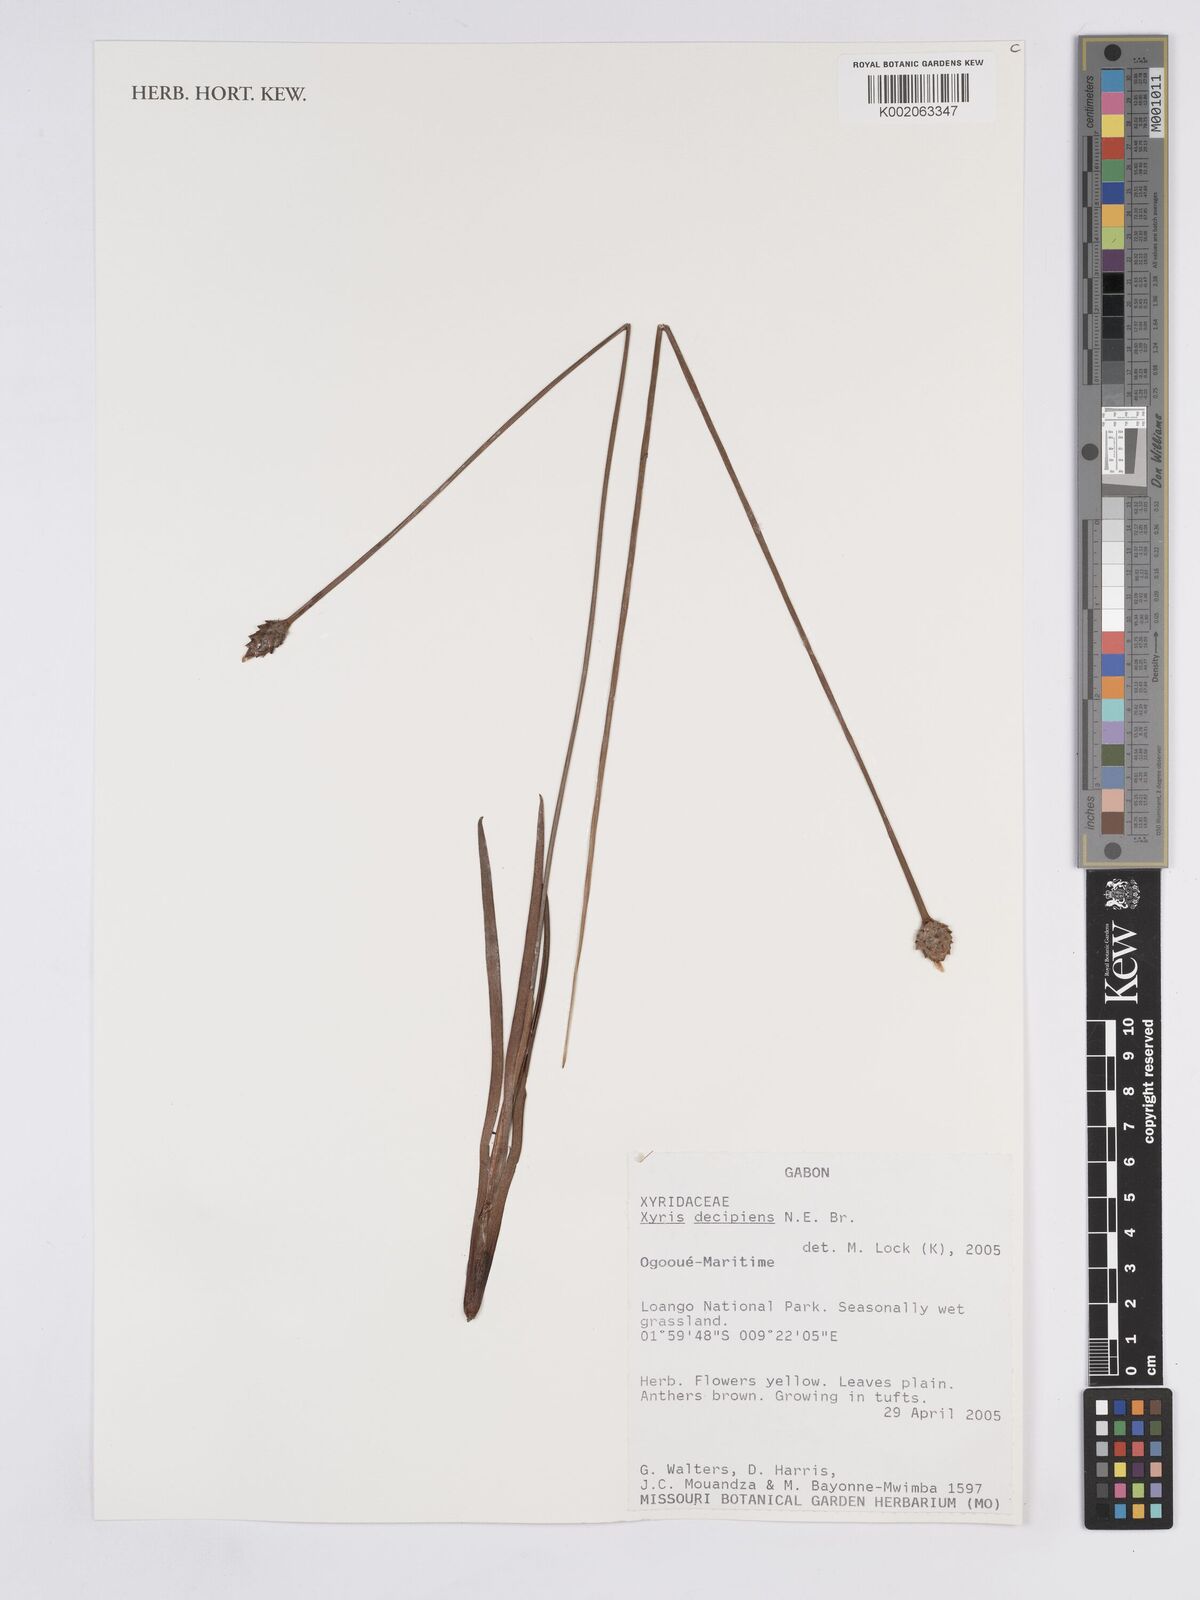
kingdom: Plantae
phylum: Tracheophyta
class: Liliopsida
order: Poales
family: Xyridaceae
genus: Xyris
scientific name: Xyris decipiens
